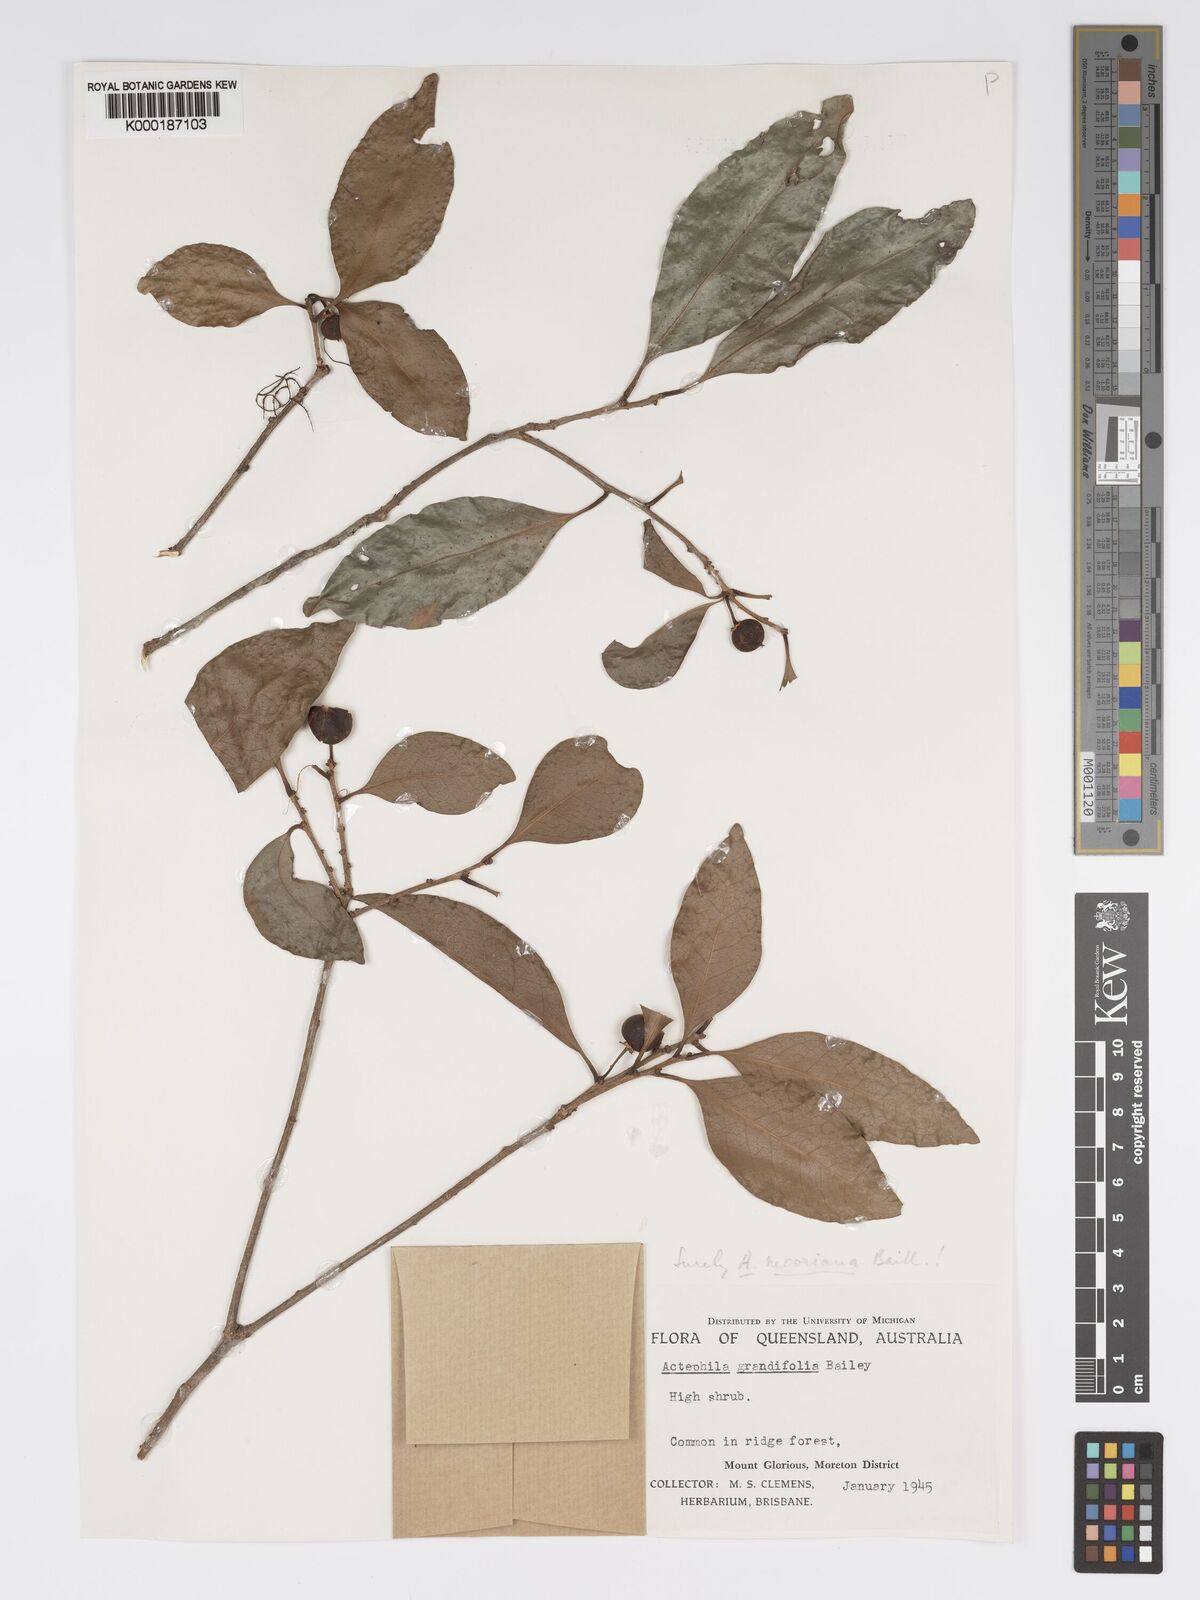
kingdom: Plantae
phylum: Tracheophyta
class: Magnoliopsida
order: Malpighiales
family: Phyllanthaceae
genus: Actephila
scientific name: Actephila lindleyi
